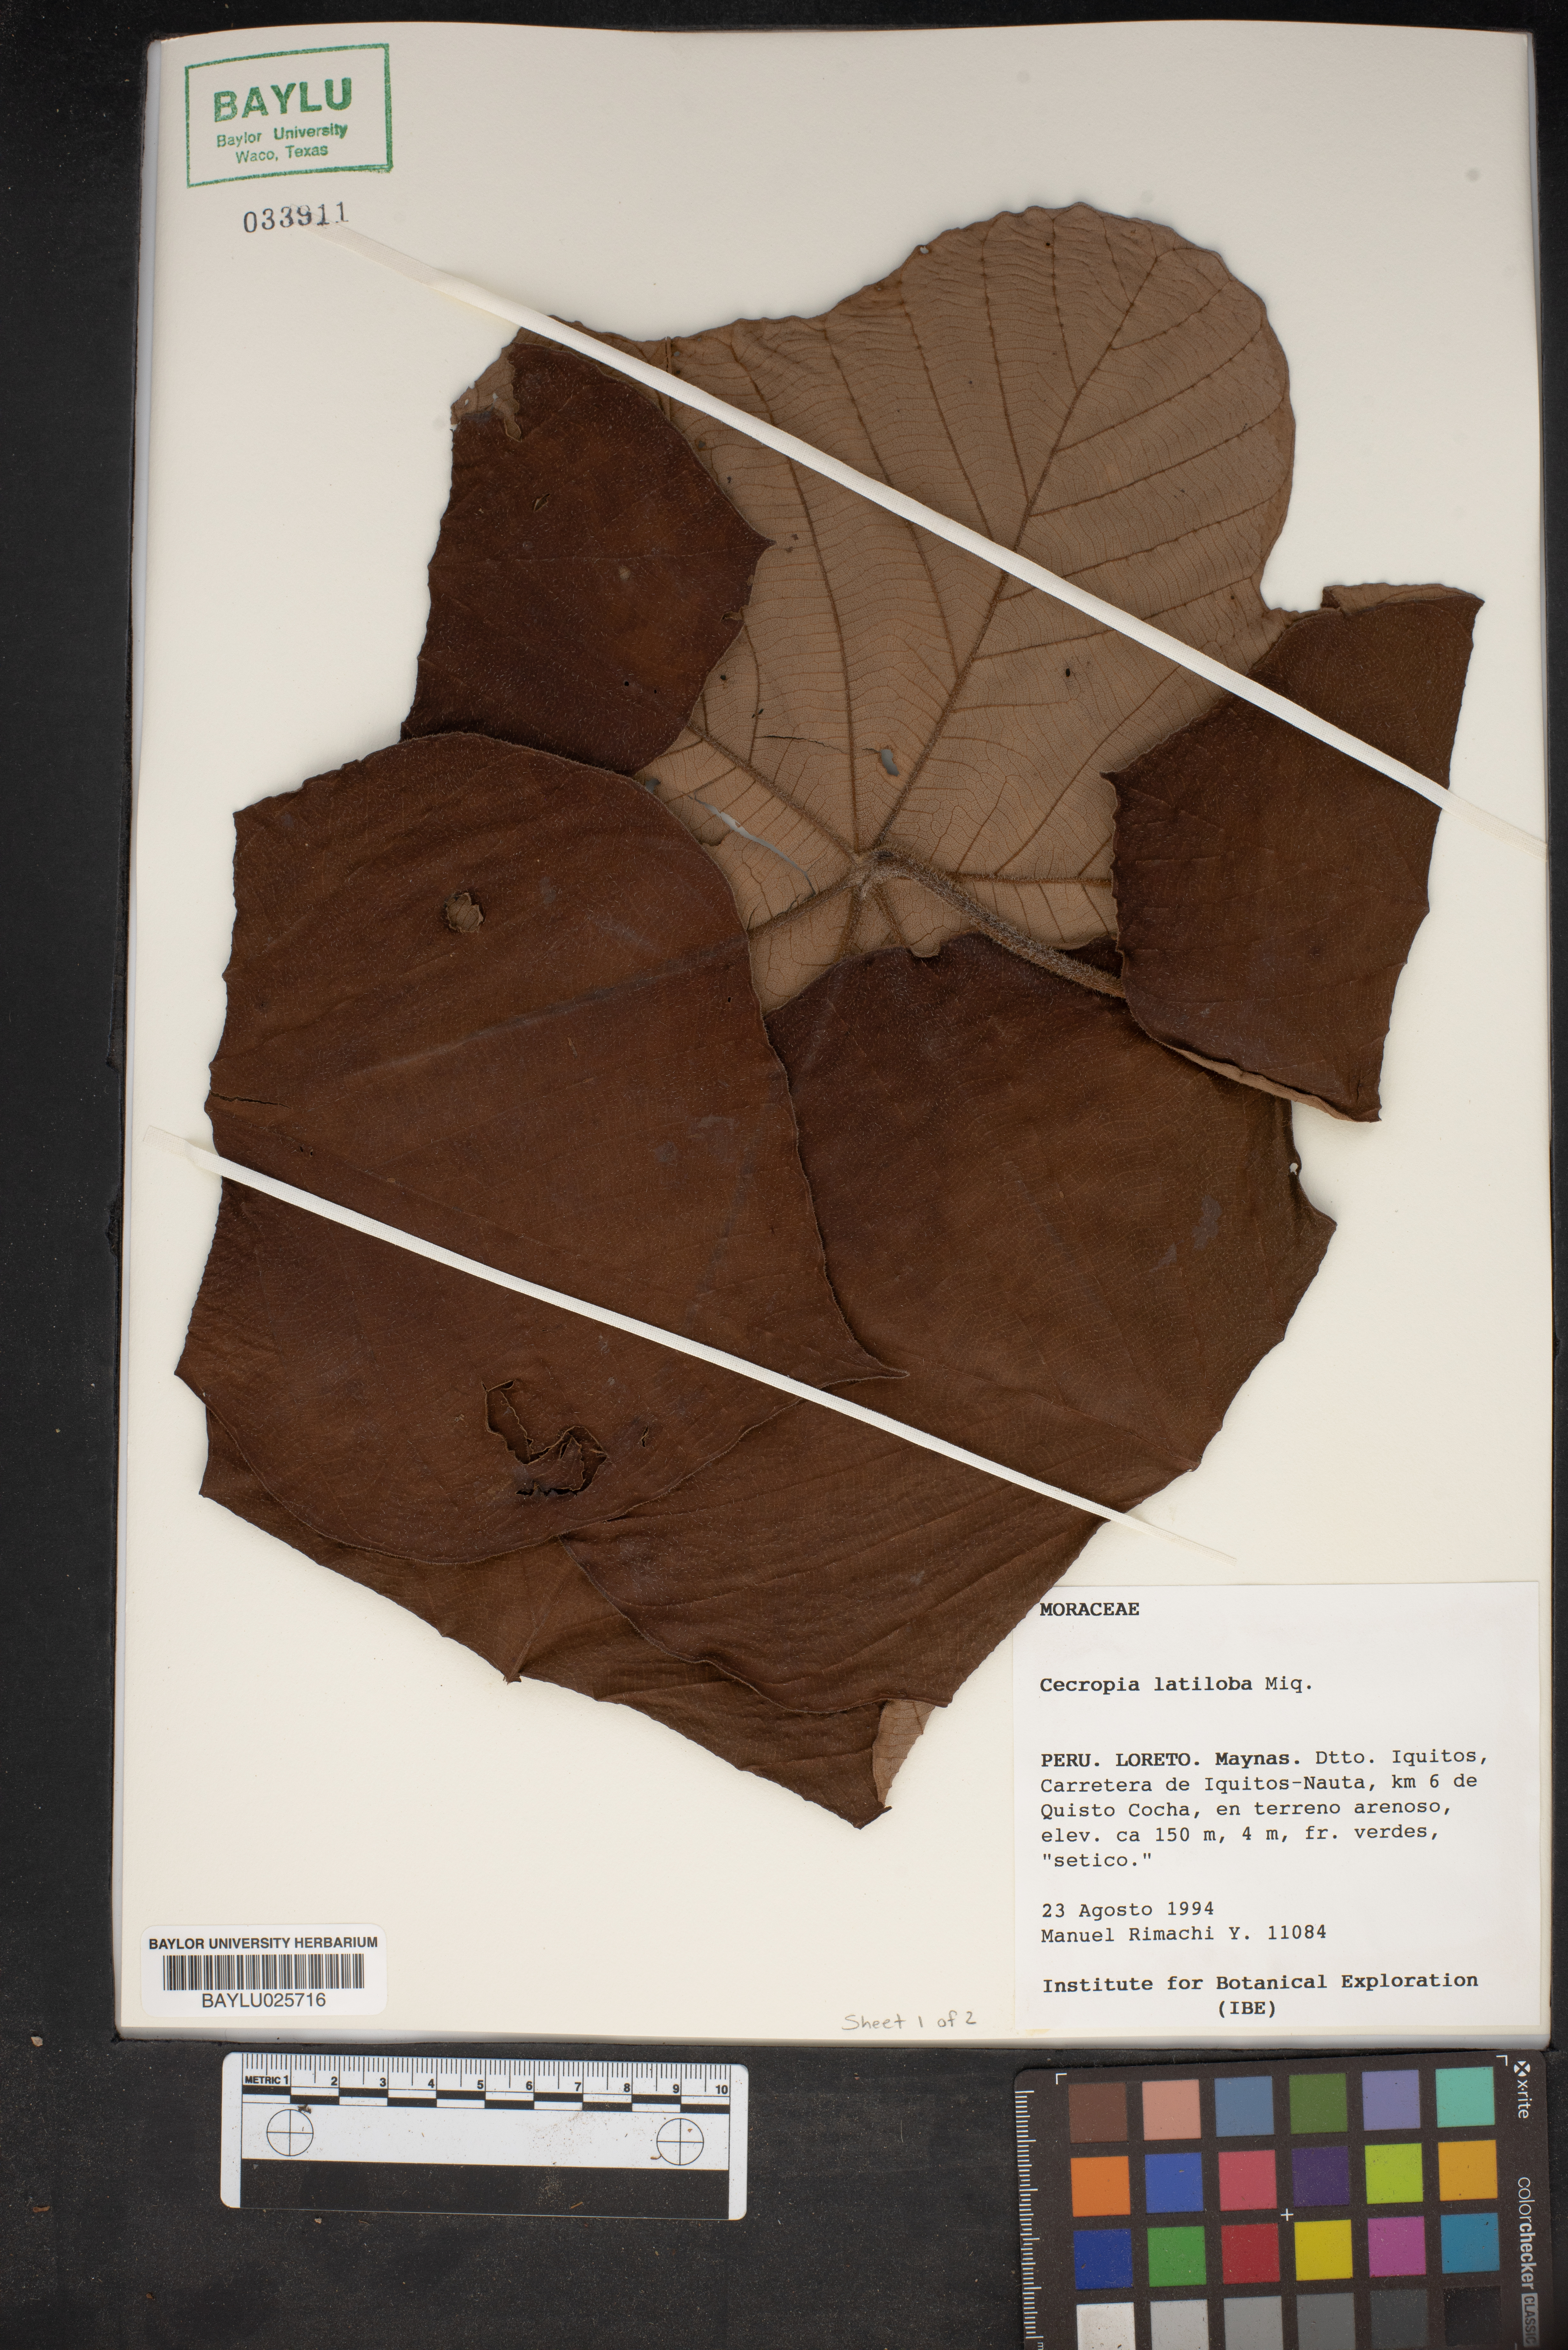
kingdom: Plantae
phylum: Tracheophyta
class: Magnoliopsida
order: Rosales
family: Urticaceae
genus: Cecropia
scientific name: Cecropia latiloba
